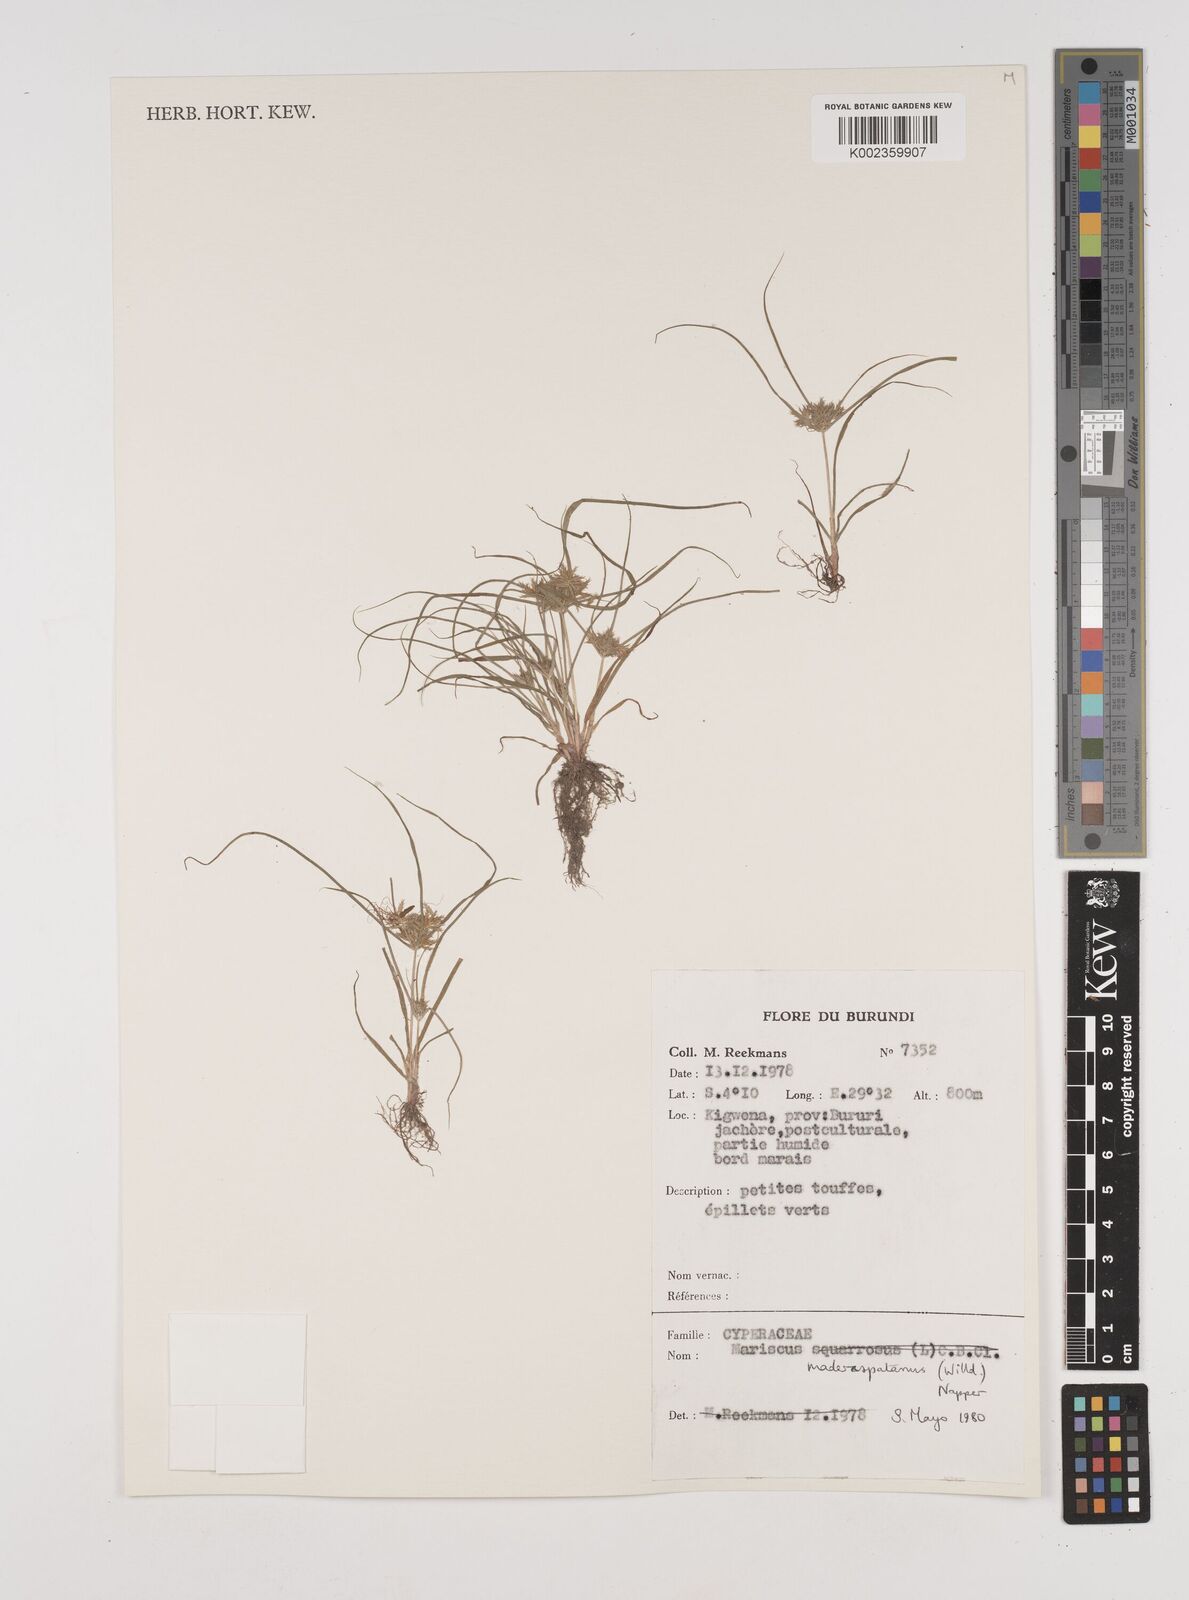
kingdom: Plantae
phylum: Tracheophyta
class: Liliopsida
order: Poales
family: Cyperaceae
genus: Cyperus
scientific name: Cyperus maderaspatanus
